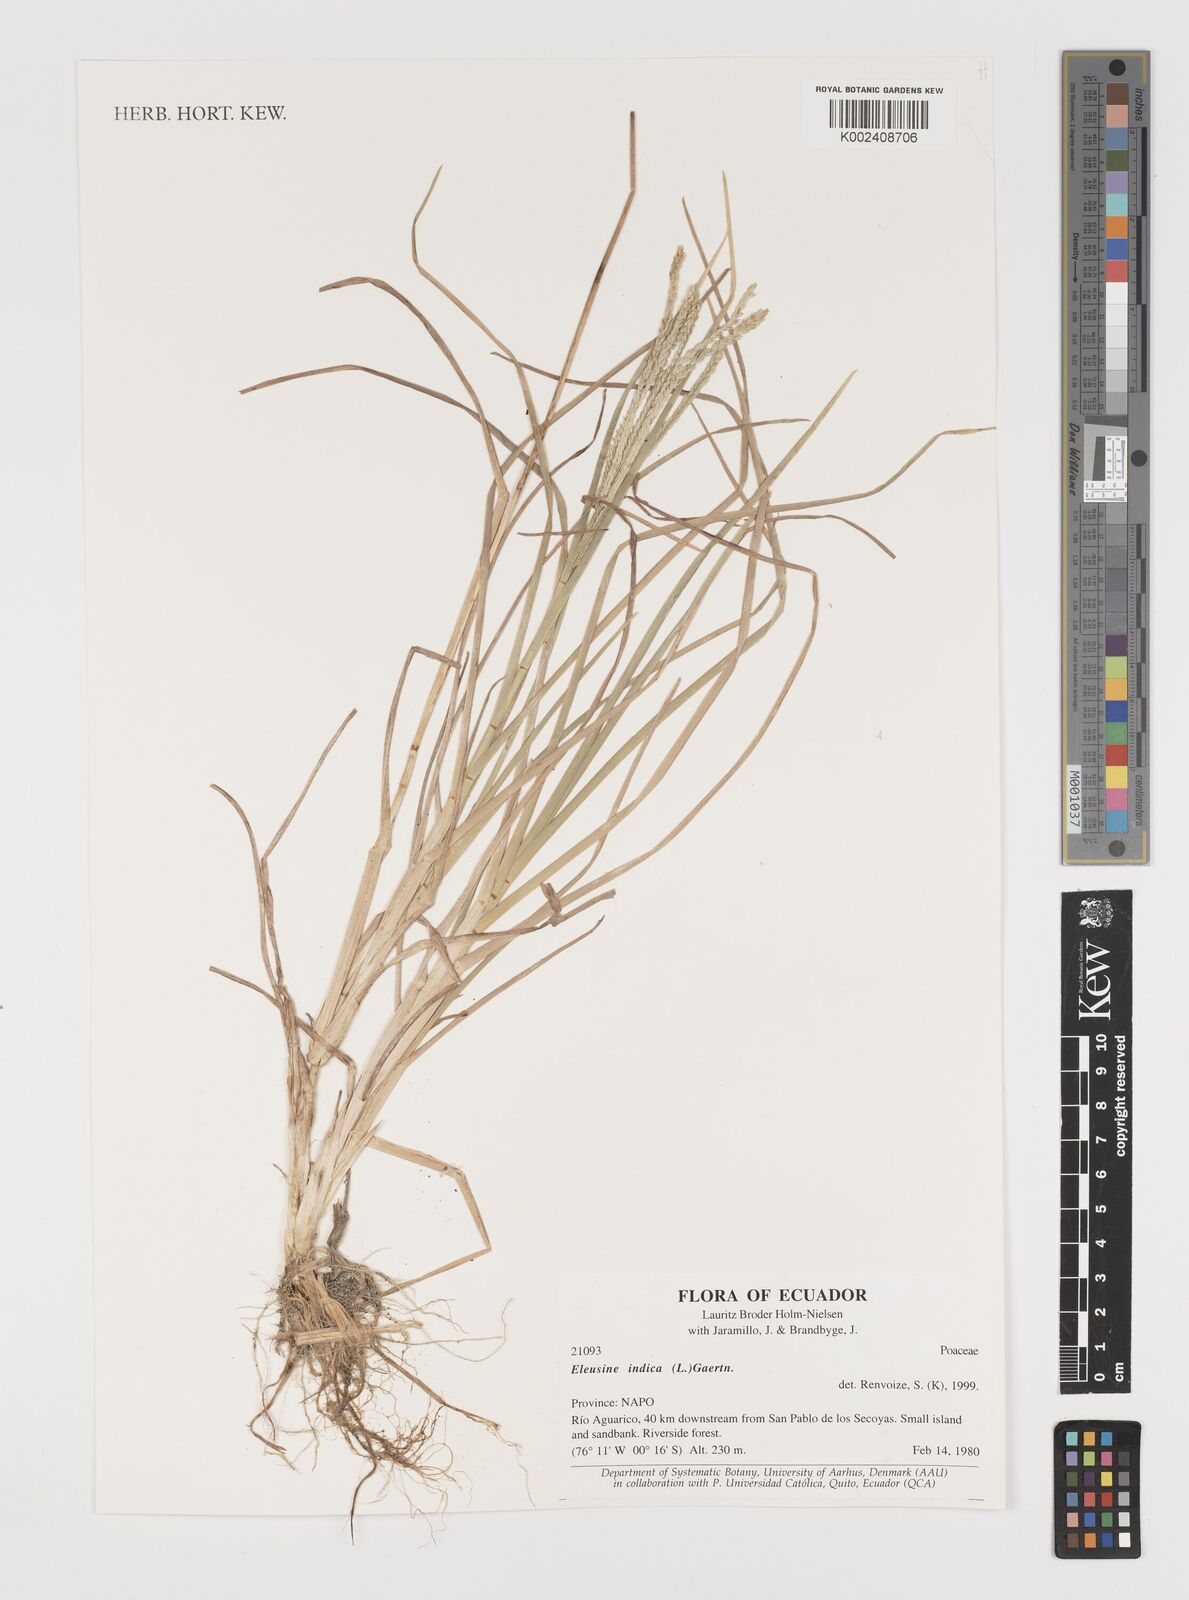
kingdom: Plantae
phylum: Tracheophyta
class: Liliopsida
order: Poales
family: Poaceae
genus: Eleusine
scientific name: Eleusine indica
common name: Yard-grass
